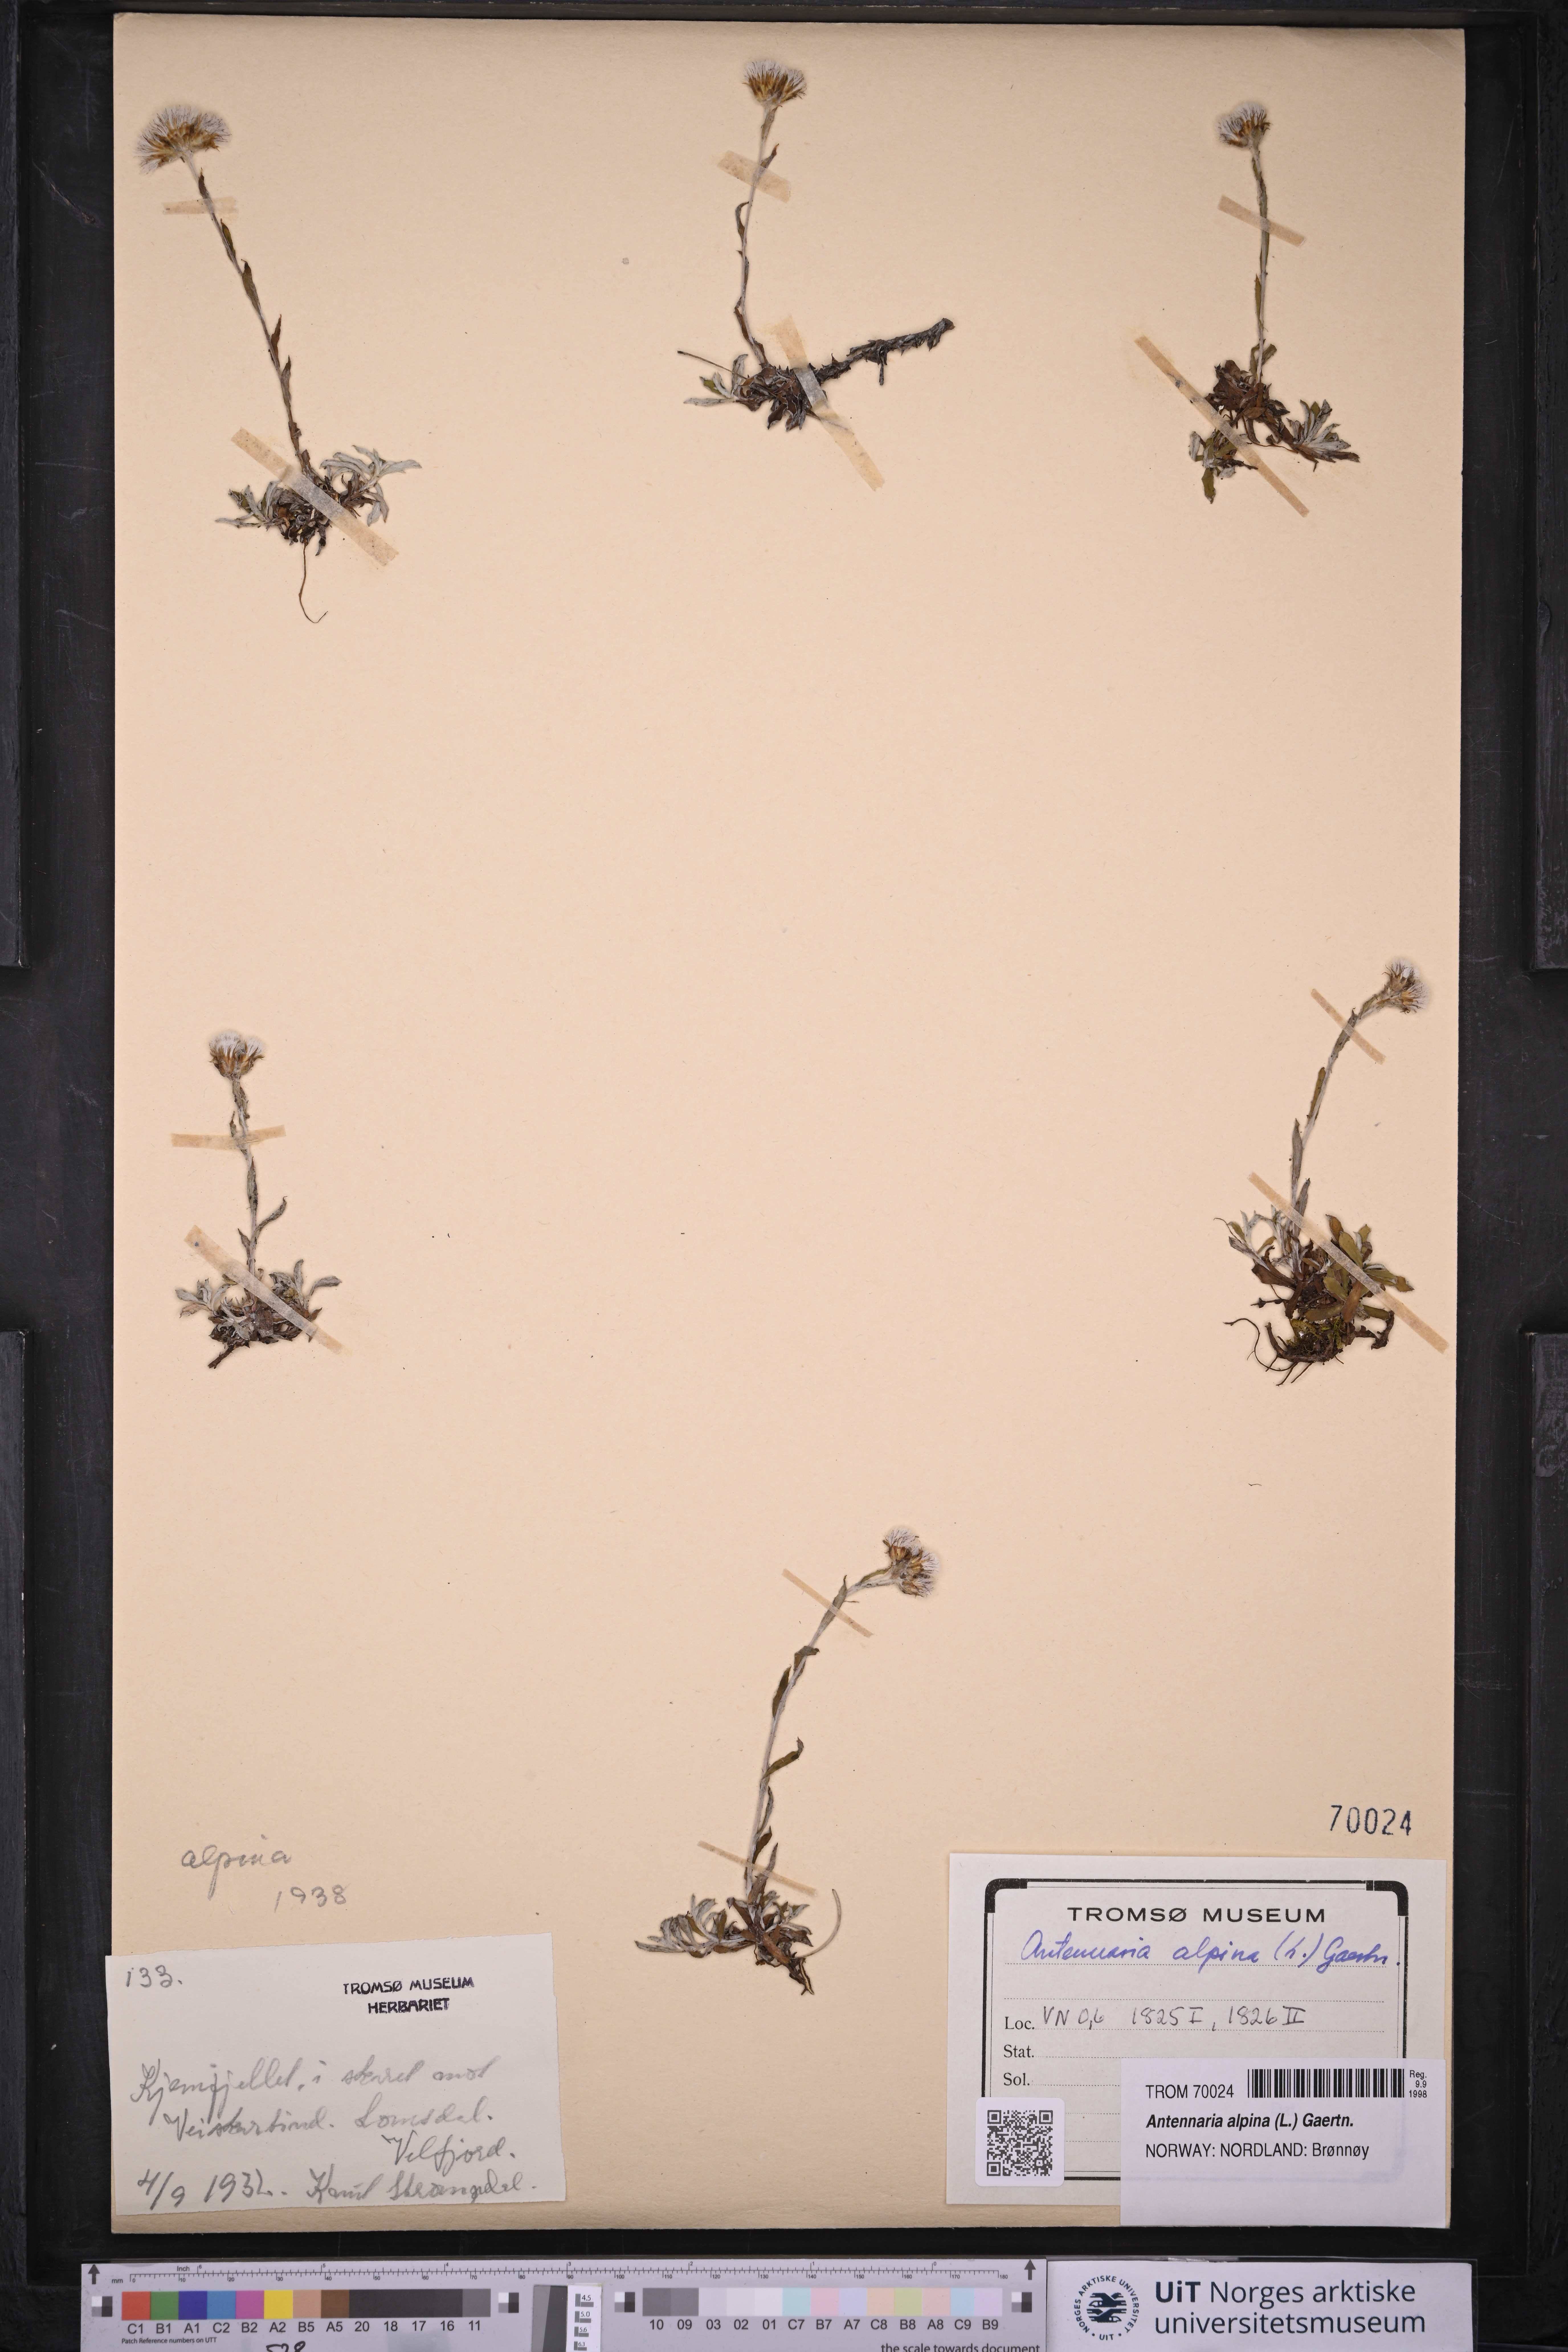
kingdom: Plantae
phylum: Tracheophyta
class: Magnoliopsida
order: Asterales
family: Asteraceae
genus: Antennaria
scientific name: Antennaria alpina
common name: Alpine pussytoes
